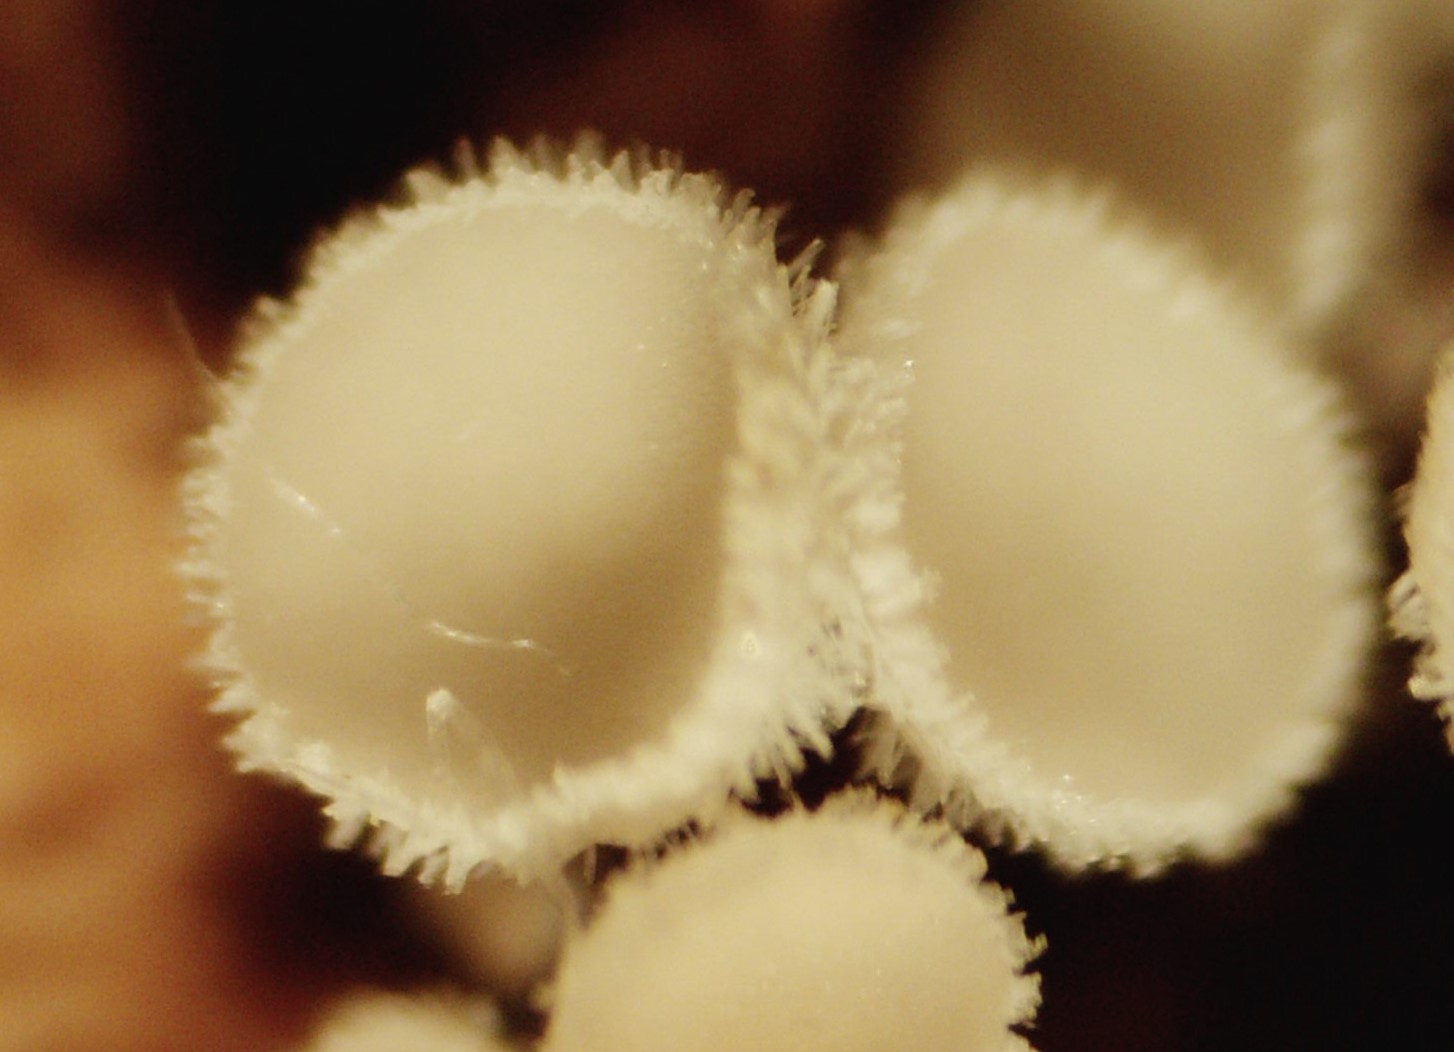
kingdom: Fungi
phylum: Ascomycota
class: Leotiomycetes
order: Helotiales
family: Lachnaceae
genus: Lachnum
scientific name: Lachnum virgineum
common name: jomfru-frynseskive
